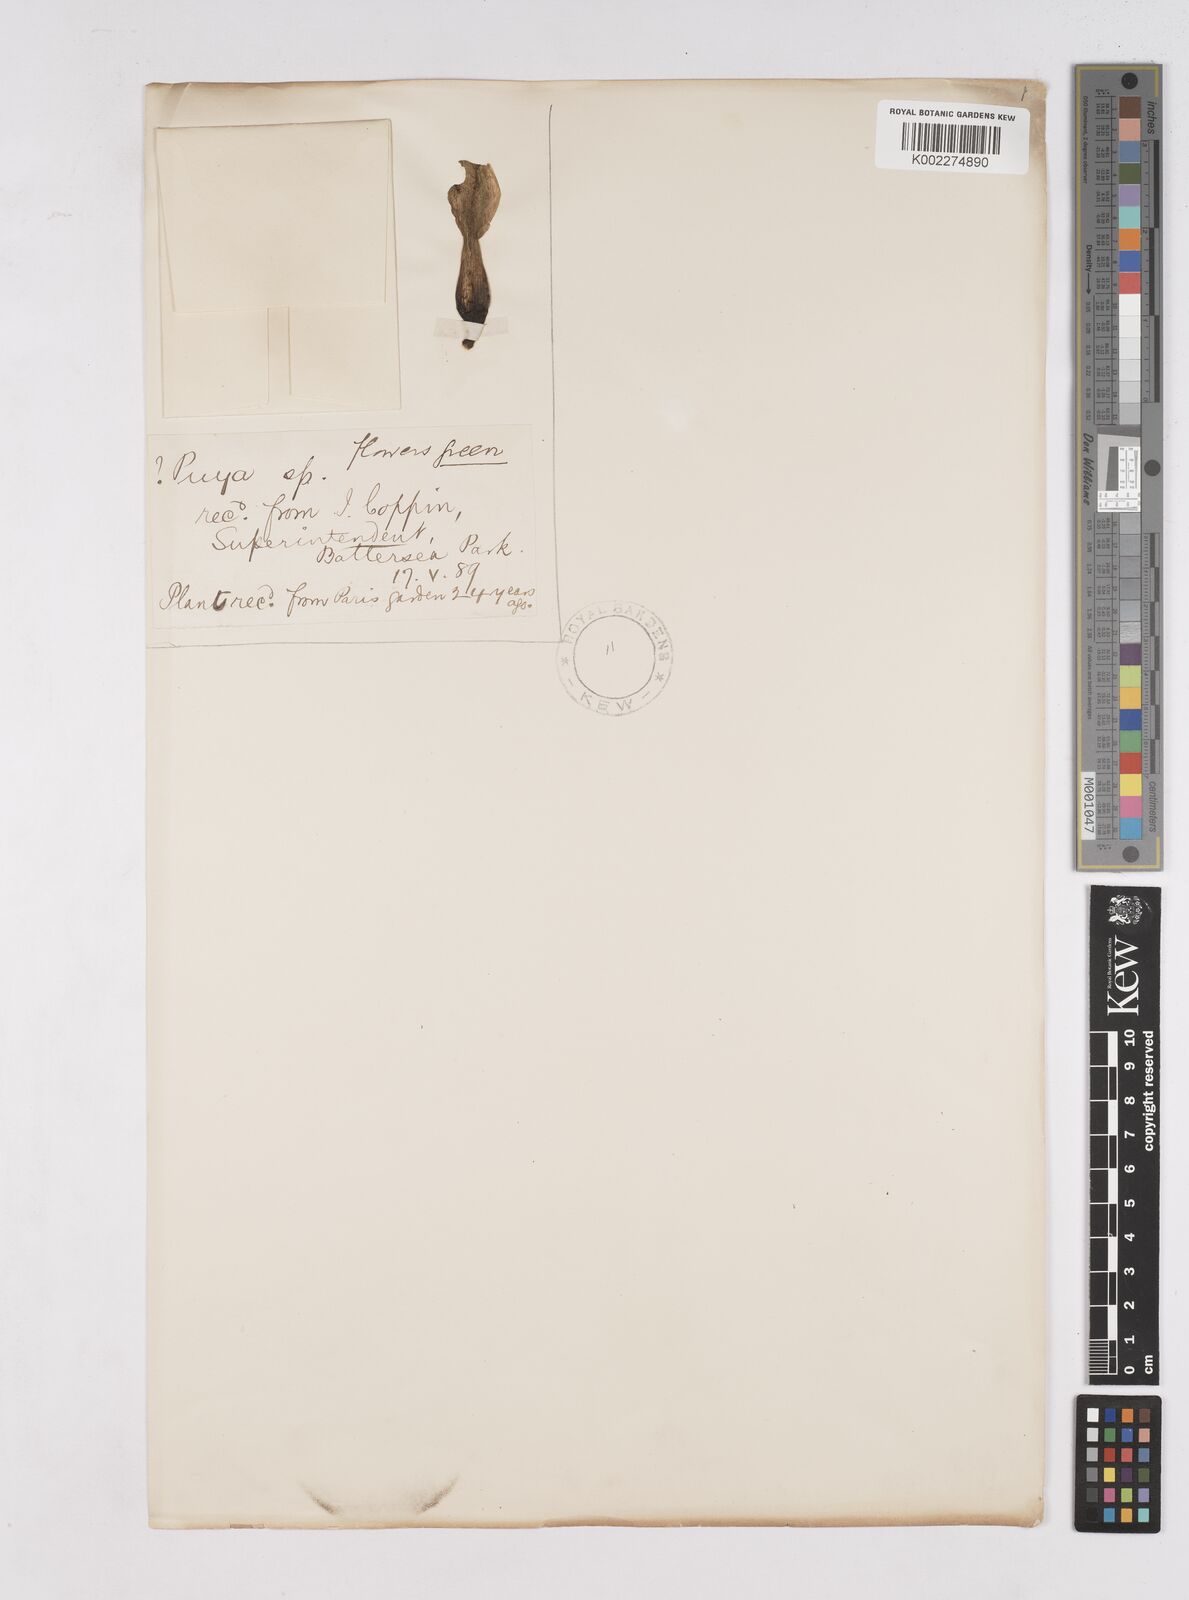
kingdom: Plantae
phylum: Tracheophyta
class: Liliopsida
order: Poales
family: Bromeliaceae
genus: Puya
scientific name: Puya
